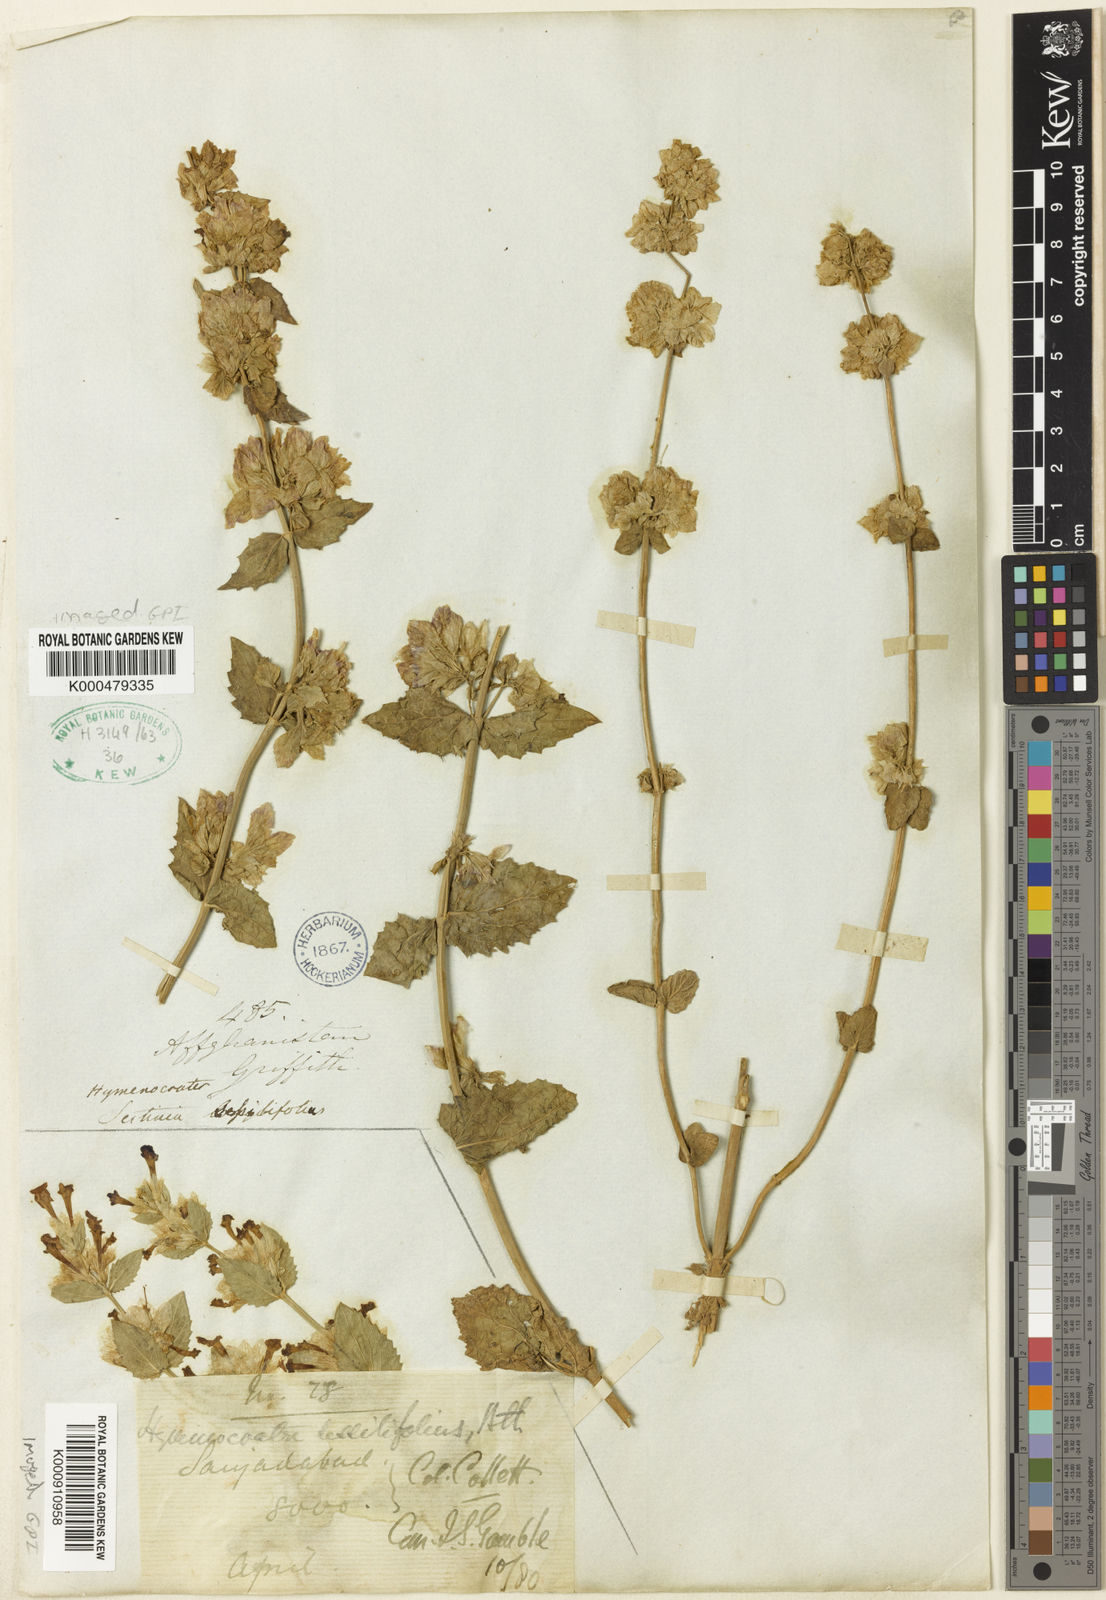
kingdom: Plantae
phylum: Tracheophyta
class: Magnoliopsida
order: Lamiales
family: Lamiaceae
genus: Nepeta
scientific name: Nepeta argutidens
